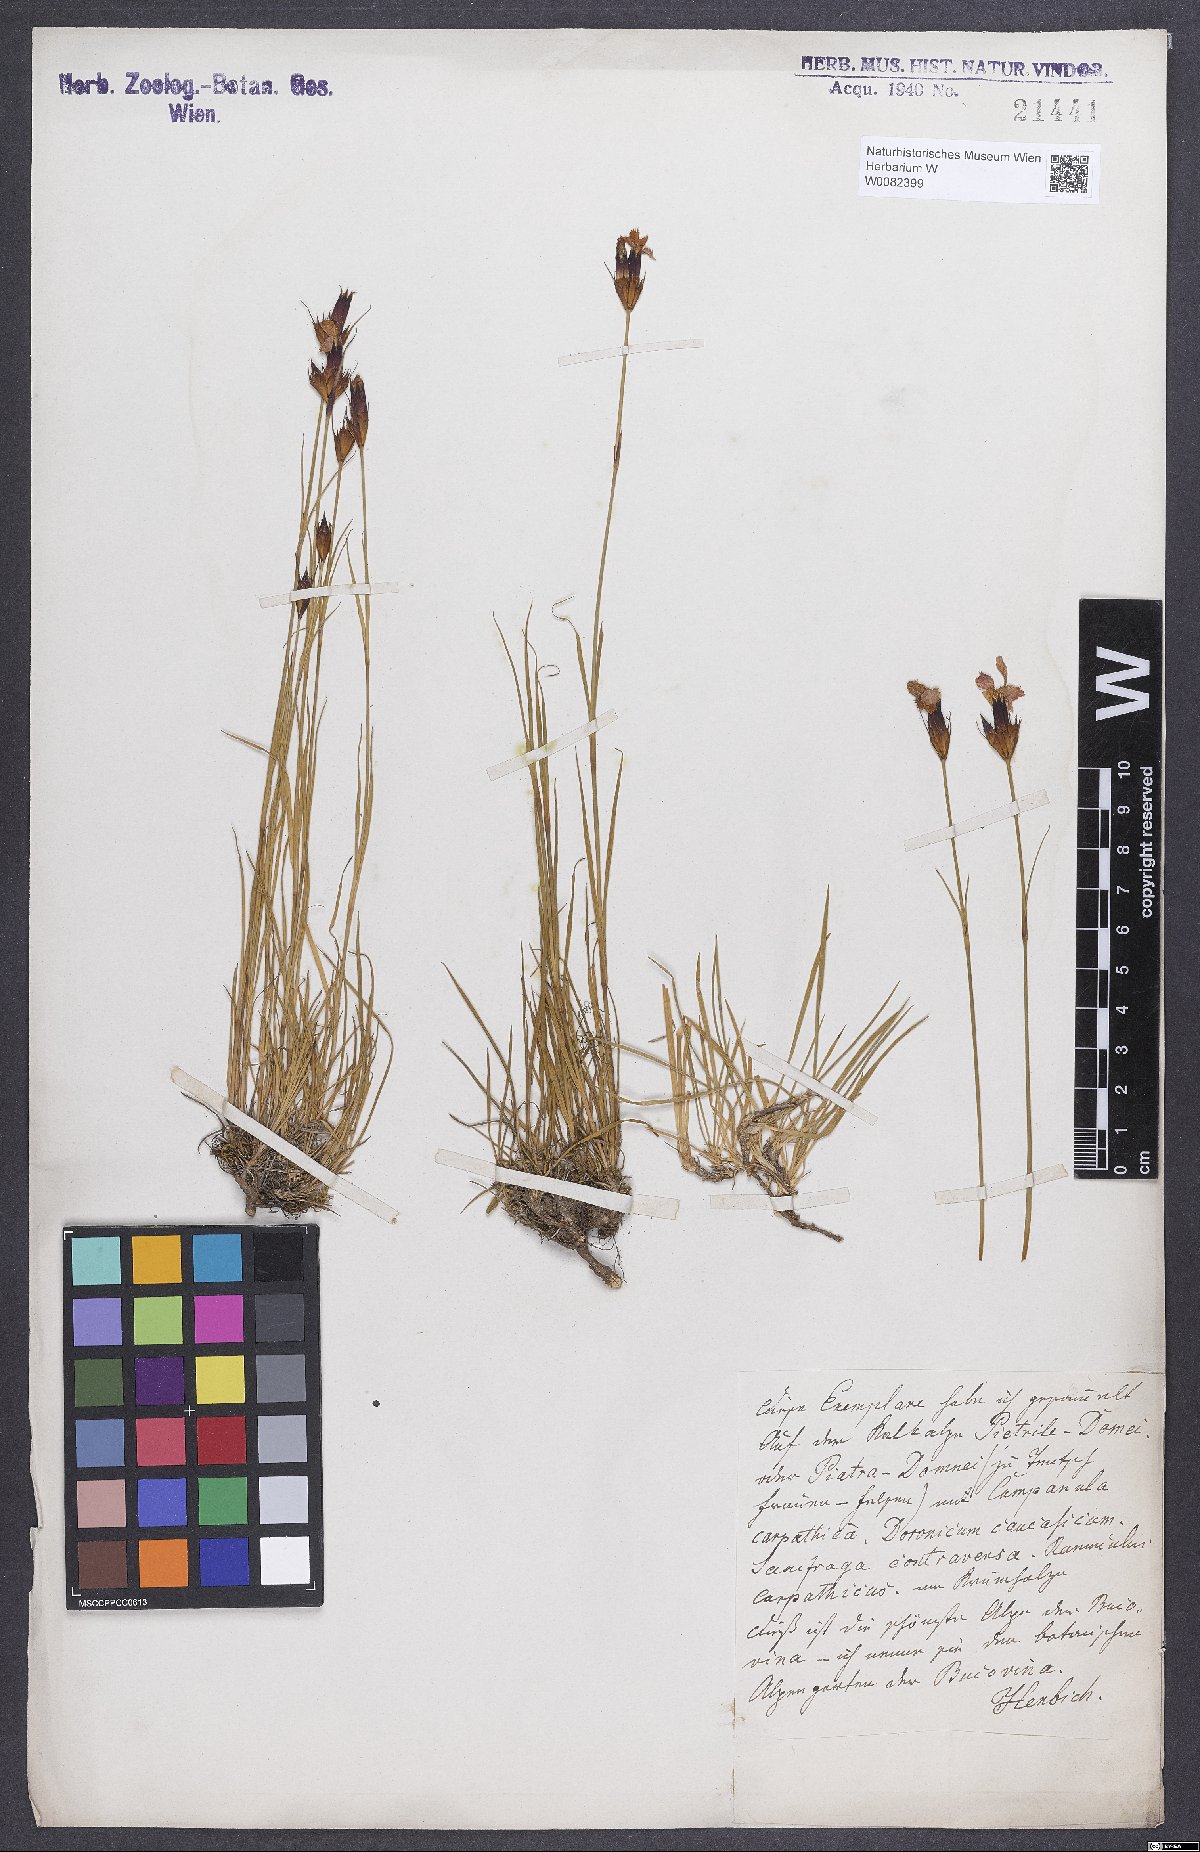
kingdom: Plantae
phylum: Tracheophyta
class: Magnoliopsida
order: Caryophyllales
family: Caryophyllaceae
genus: Dianthus
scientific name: Dianthus carthusianorum
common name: Carthusian pink
